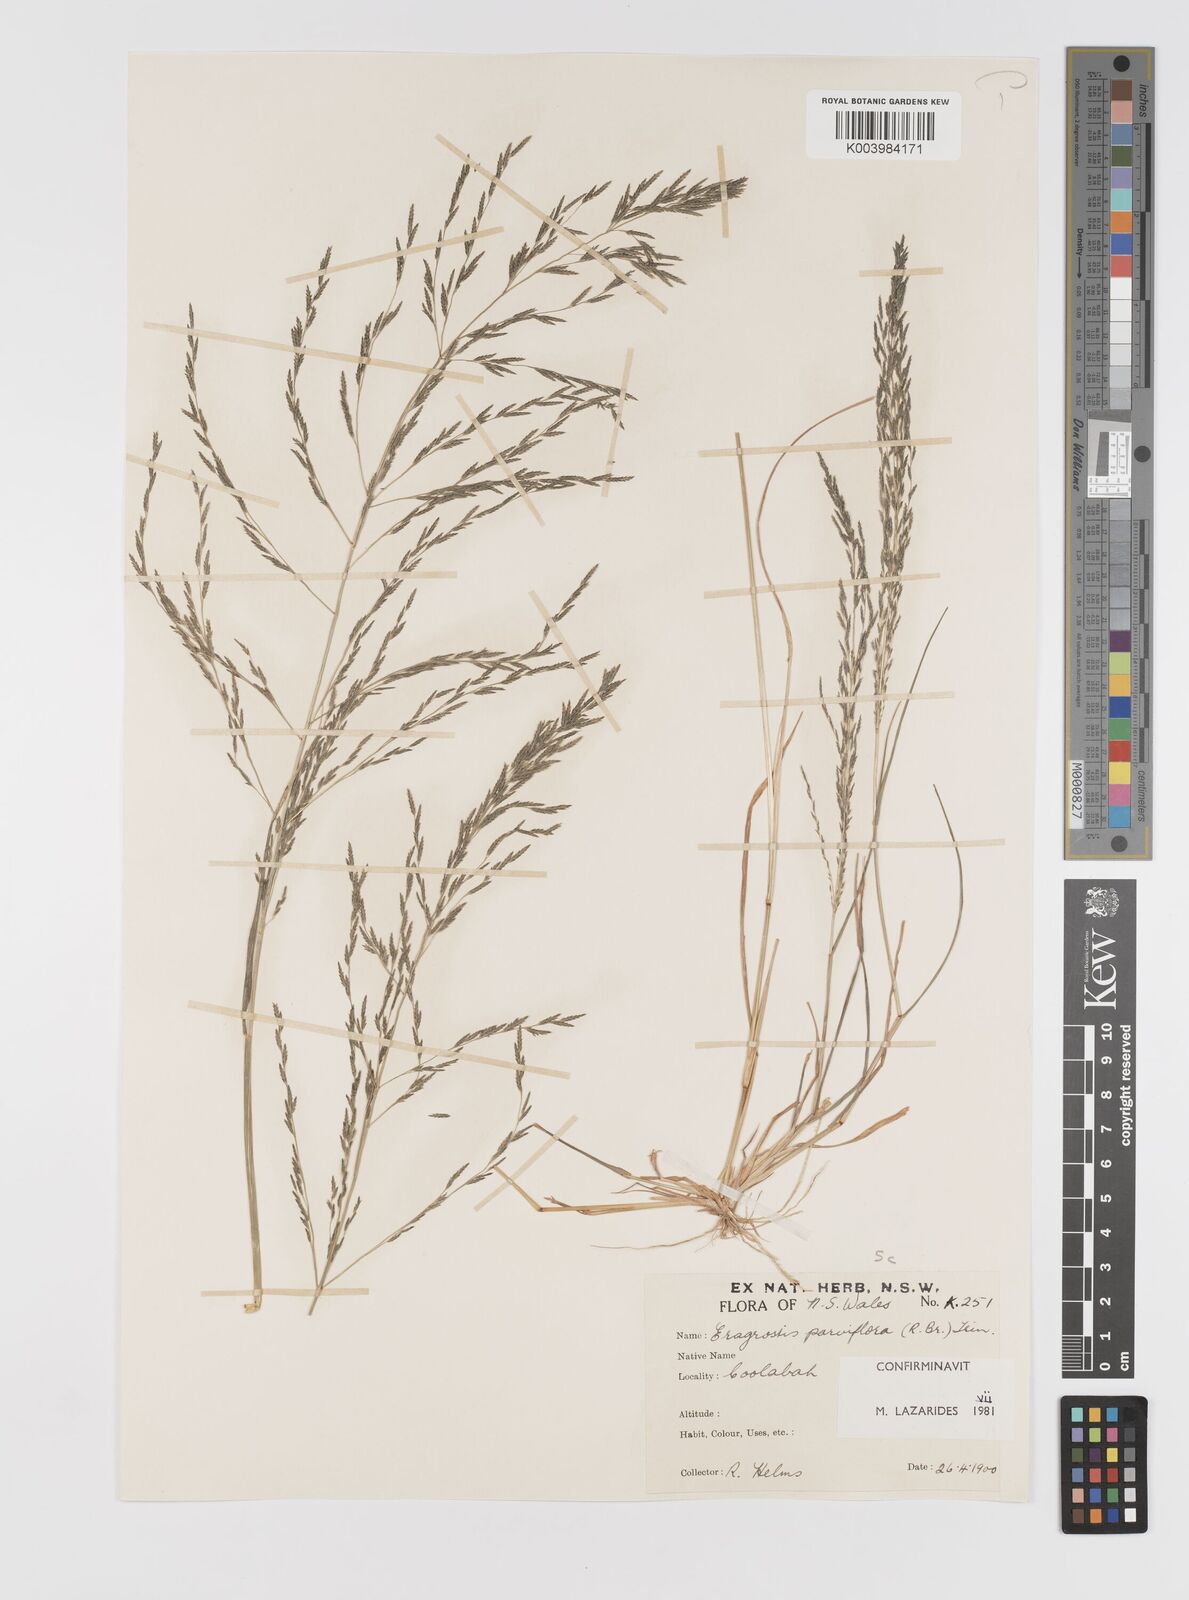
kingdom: Plantae
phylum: Tracheophyta
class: Liliopsida
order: Poales
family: Poaceae
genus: Eragrostis
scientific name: Eragrostis parviflora
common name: Weeping love-grass
